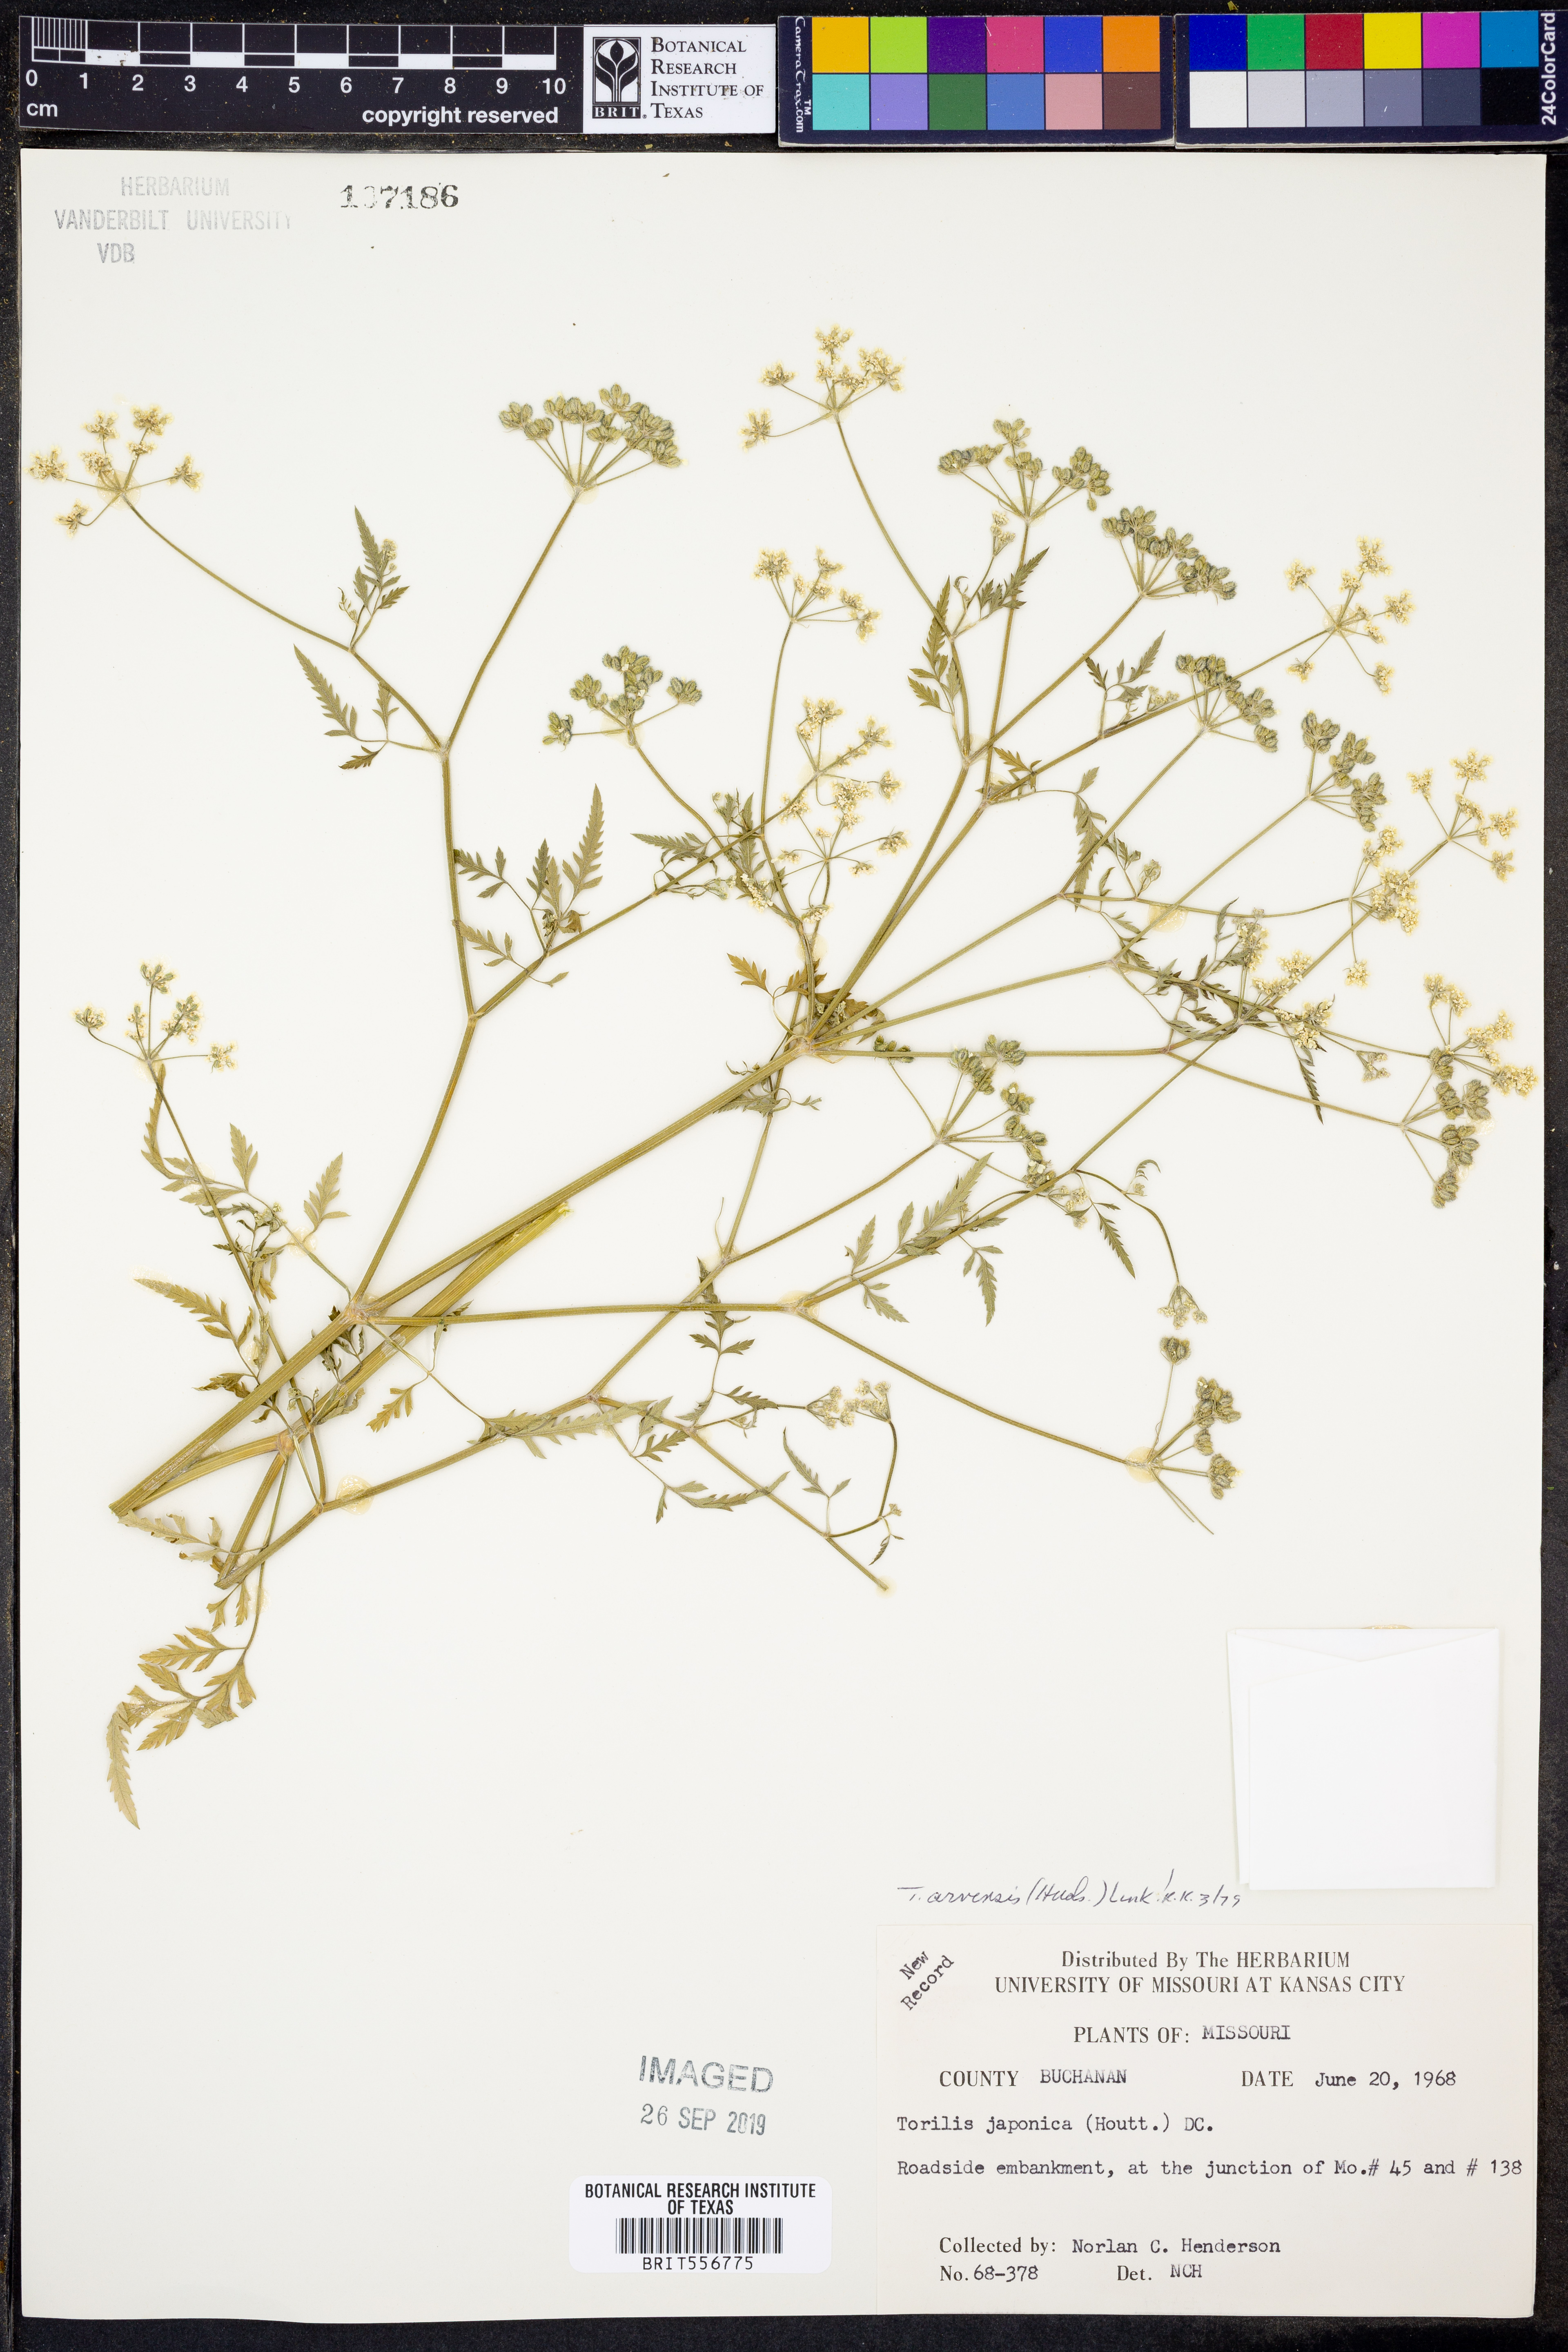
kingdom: Plantae
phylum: Tracheophyta
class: Magnoliopsida
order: Apiales
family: Apiaceae
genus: Torilis
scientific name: Torilis arvensis
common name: Spreading hedge-parsley
